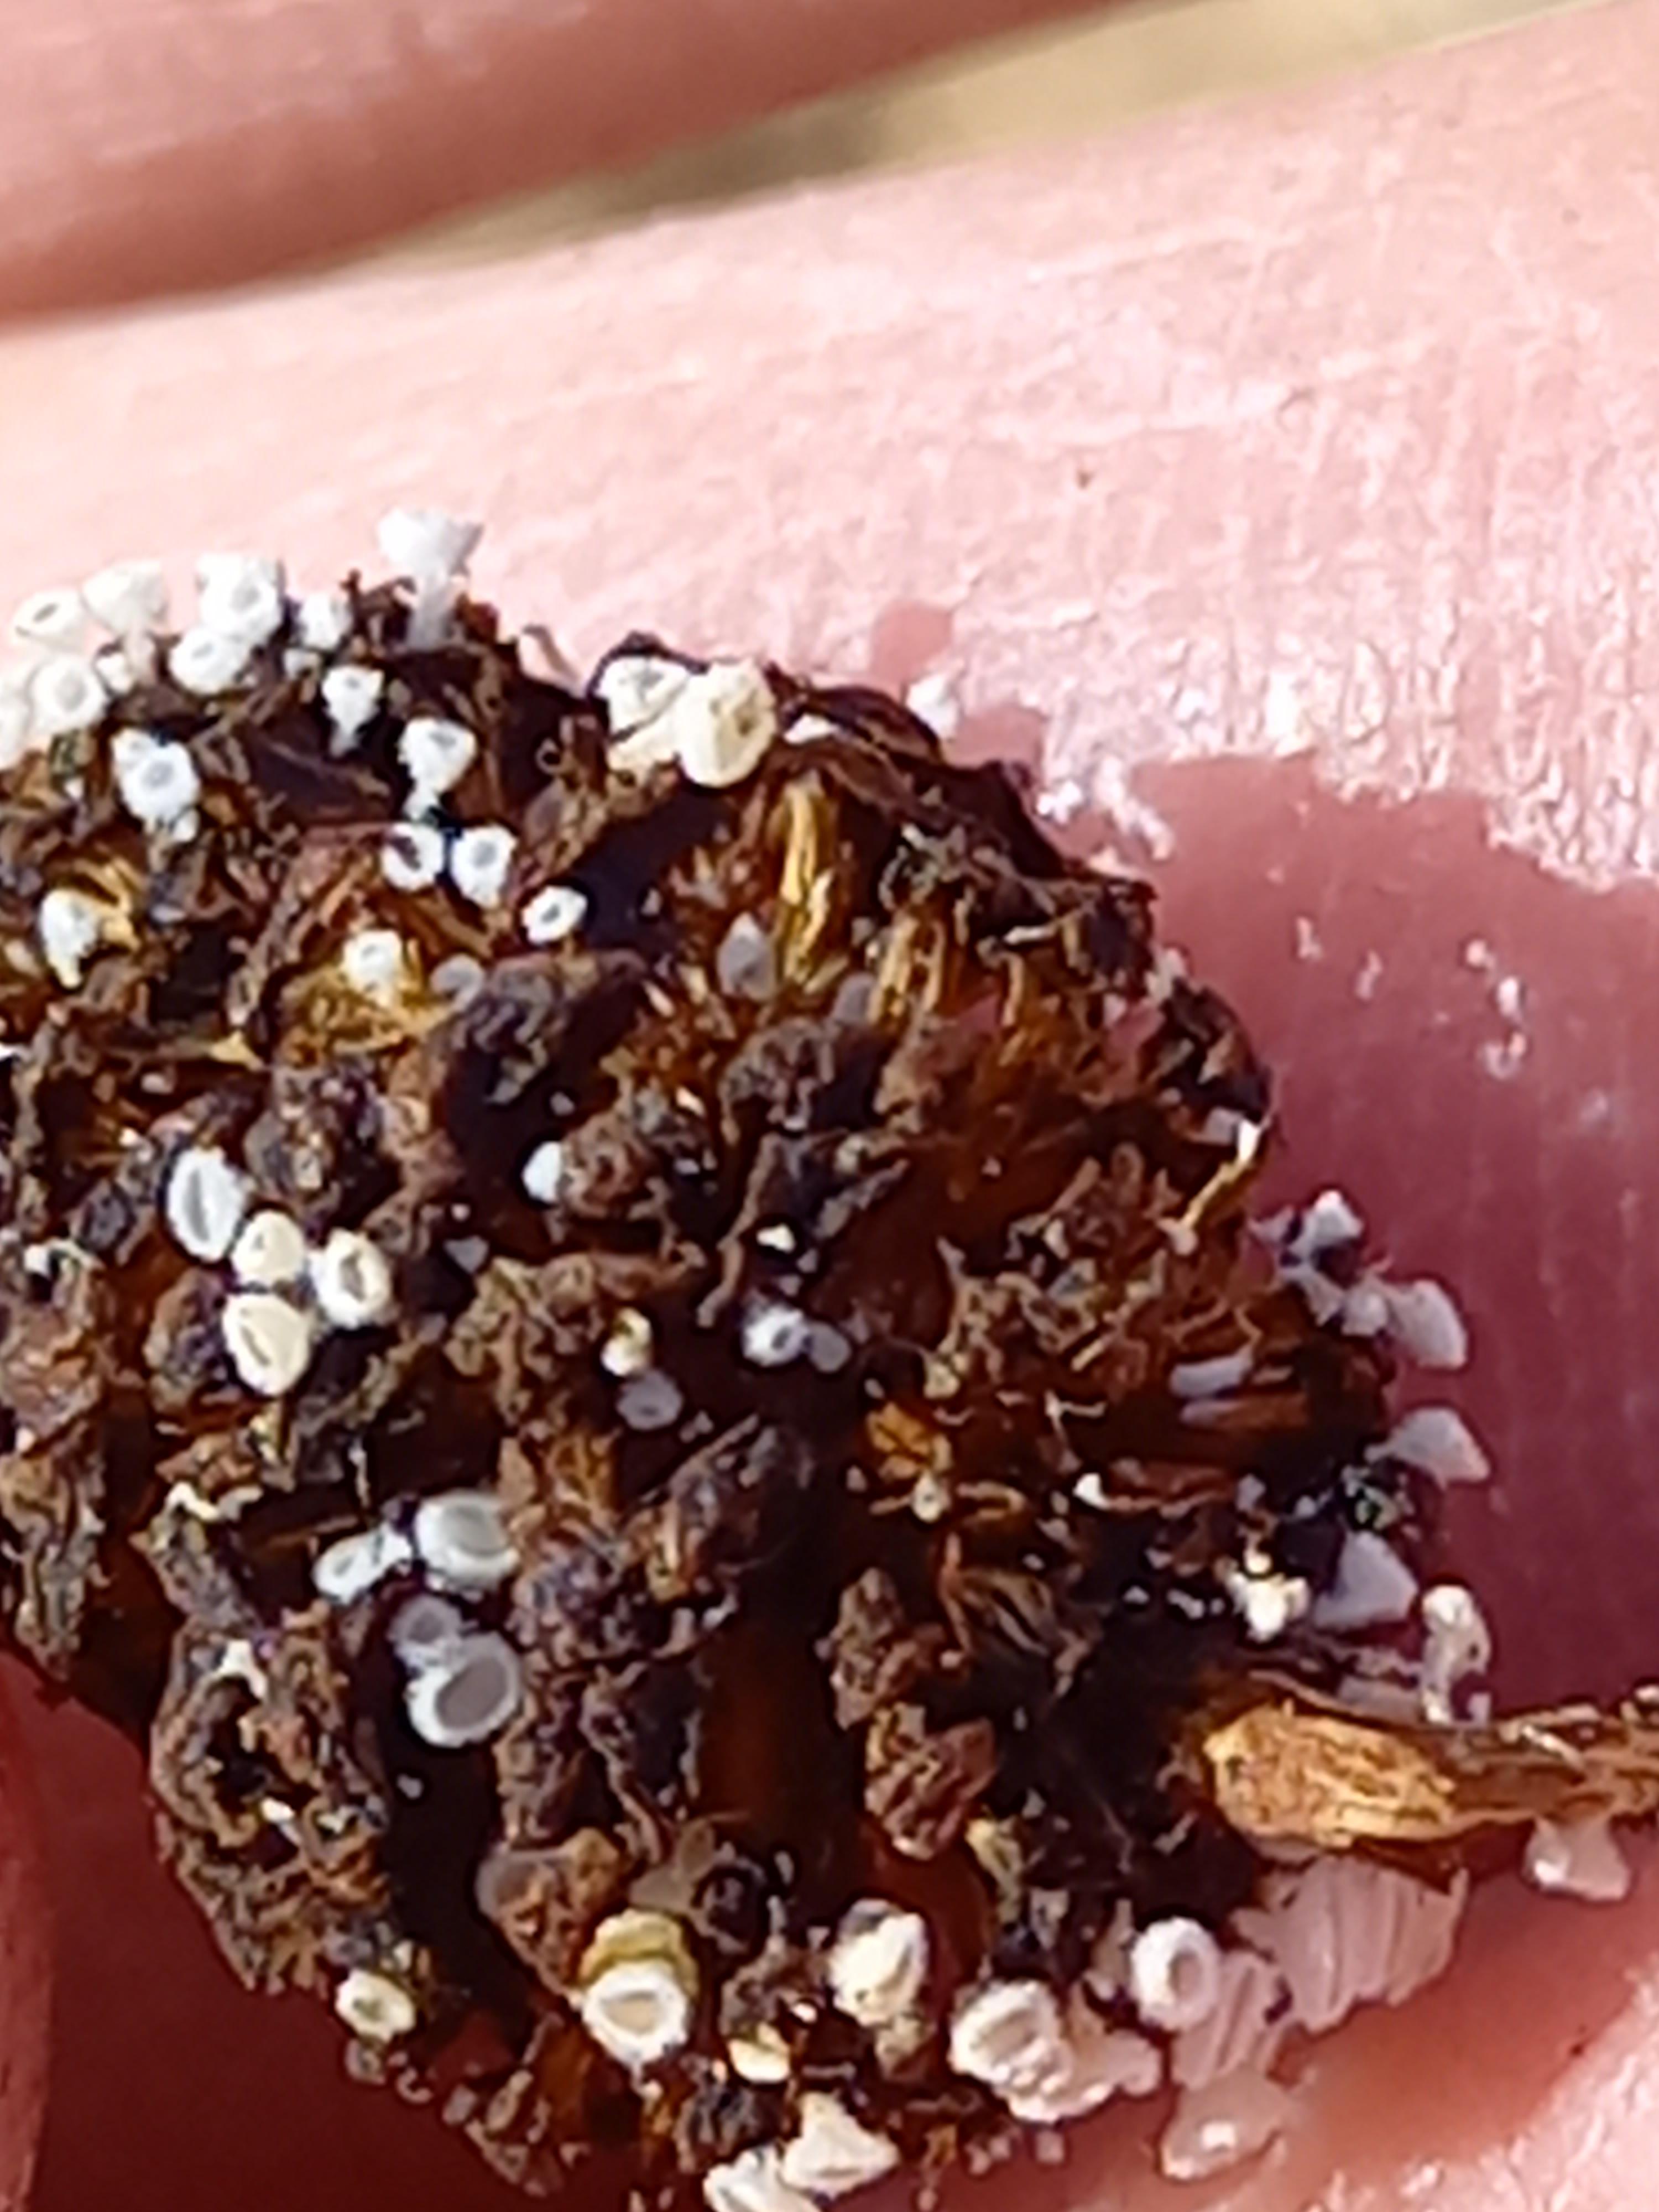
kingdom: Fungi
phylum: Ascomycota
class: Leotiomycetes
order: Helotiales
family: Lachnaceae
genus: Lachnum
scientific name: Lachnum virgineum
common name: jomfru-frynseskive
